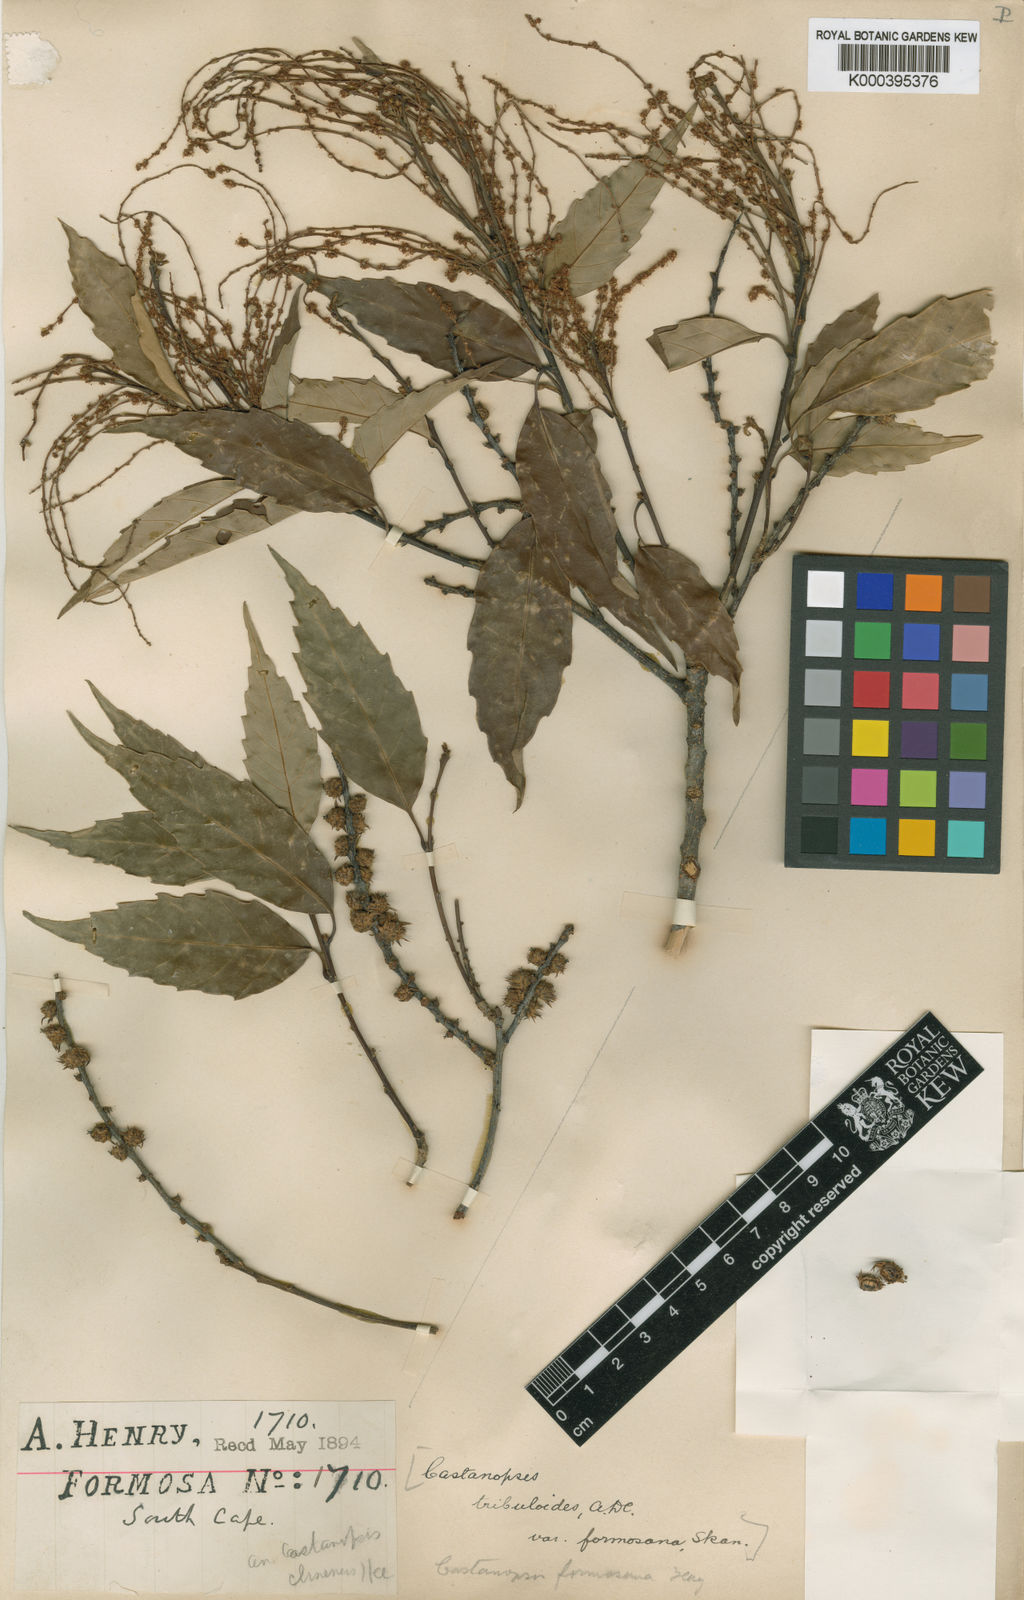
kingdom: Plantae
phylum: Tracheophyta
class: Magnoliopsida
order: Fagales
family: Fagaceae
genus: Castanopsis
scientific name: Castanopsis formosana
